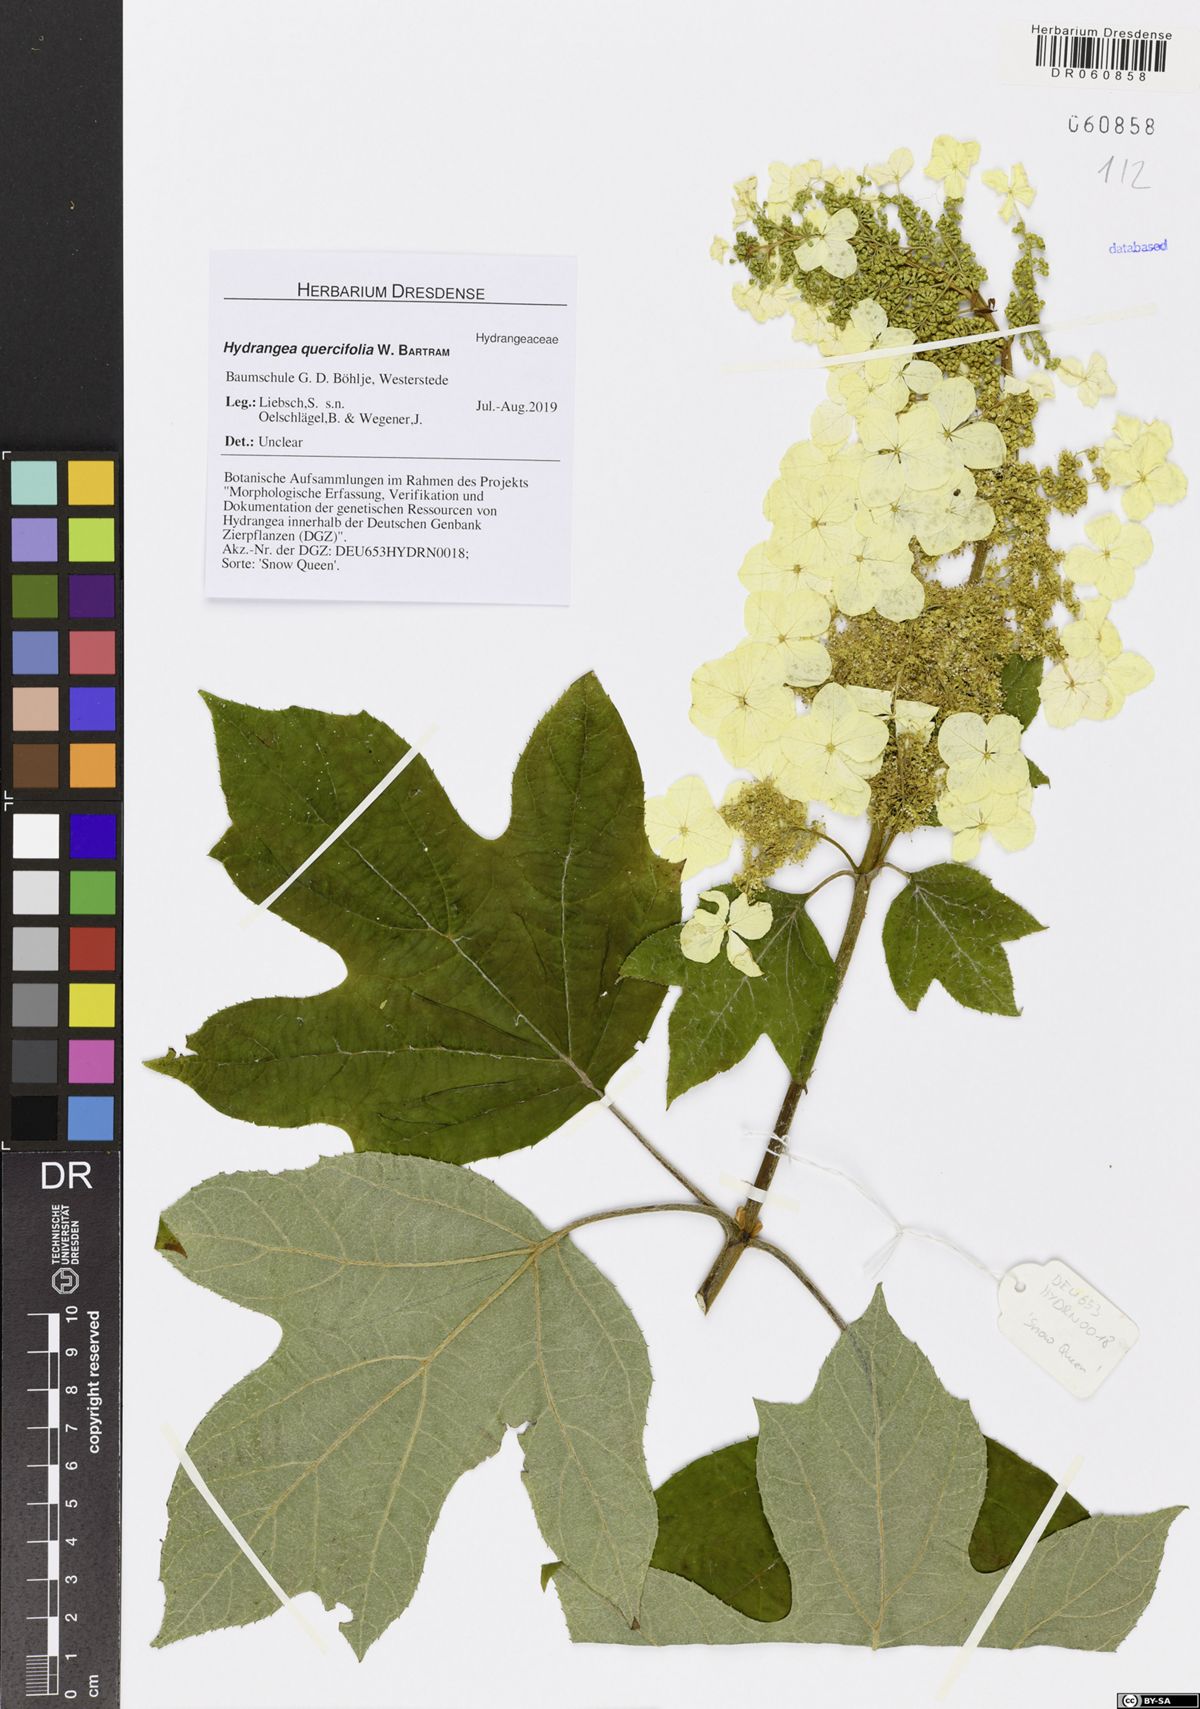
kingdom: Plantae
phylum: Tracheophyta
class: Magnoliopsida
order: Cornales
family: Hydrangeaceae
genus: Hydrangea
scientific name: Hydrangea quercifolia
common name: Oak-leaf hydrangea
